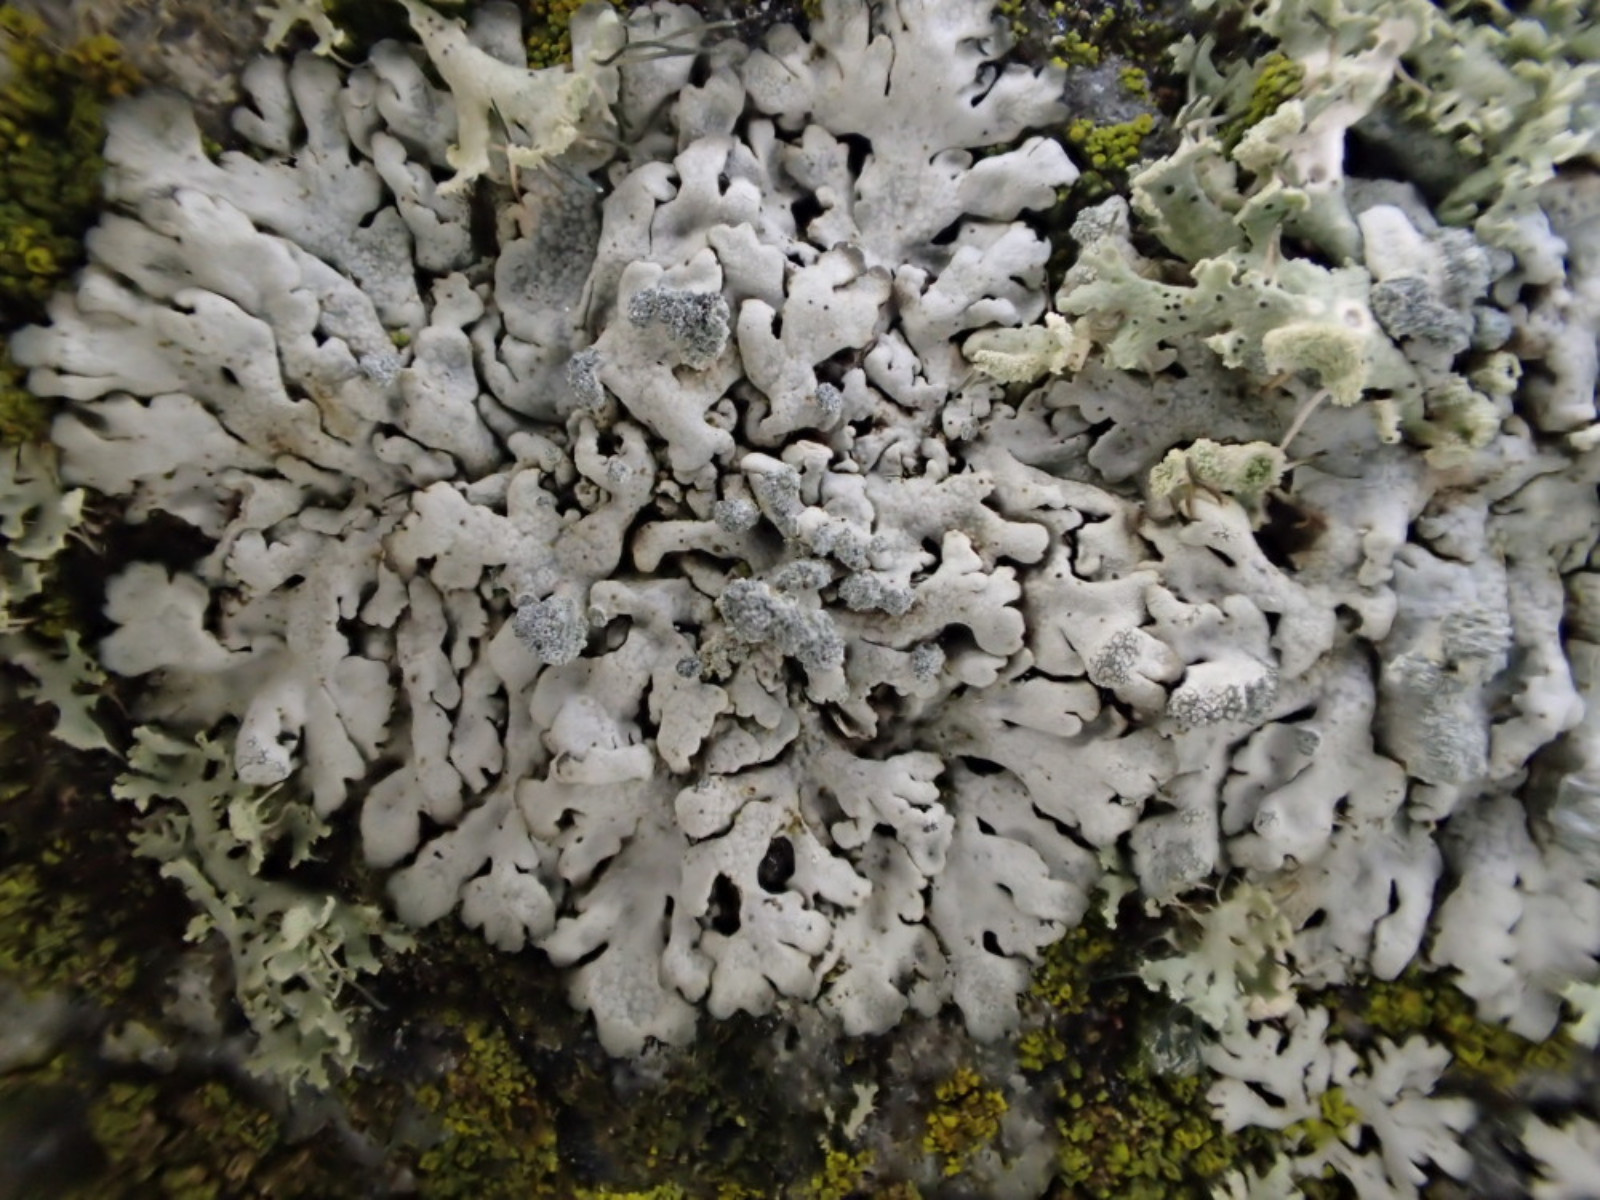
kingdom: Fungi
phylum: Ascomycota
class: Lecanoromycetes
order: Caliciales
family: Physciaceae
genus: Physcia
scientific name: Physcia caesia
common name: blågrå rosetlav
